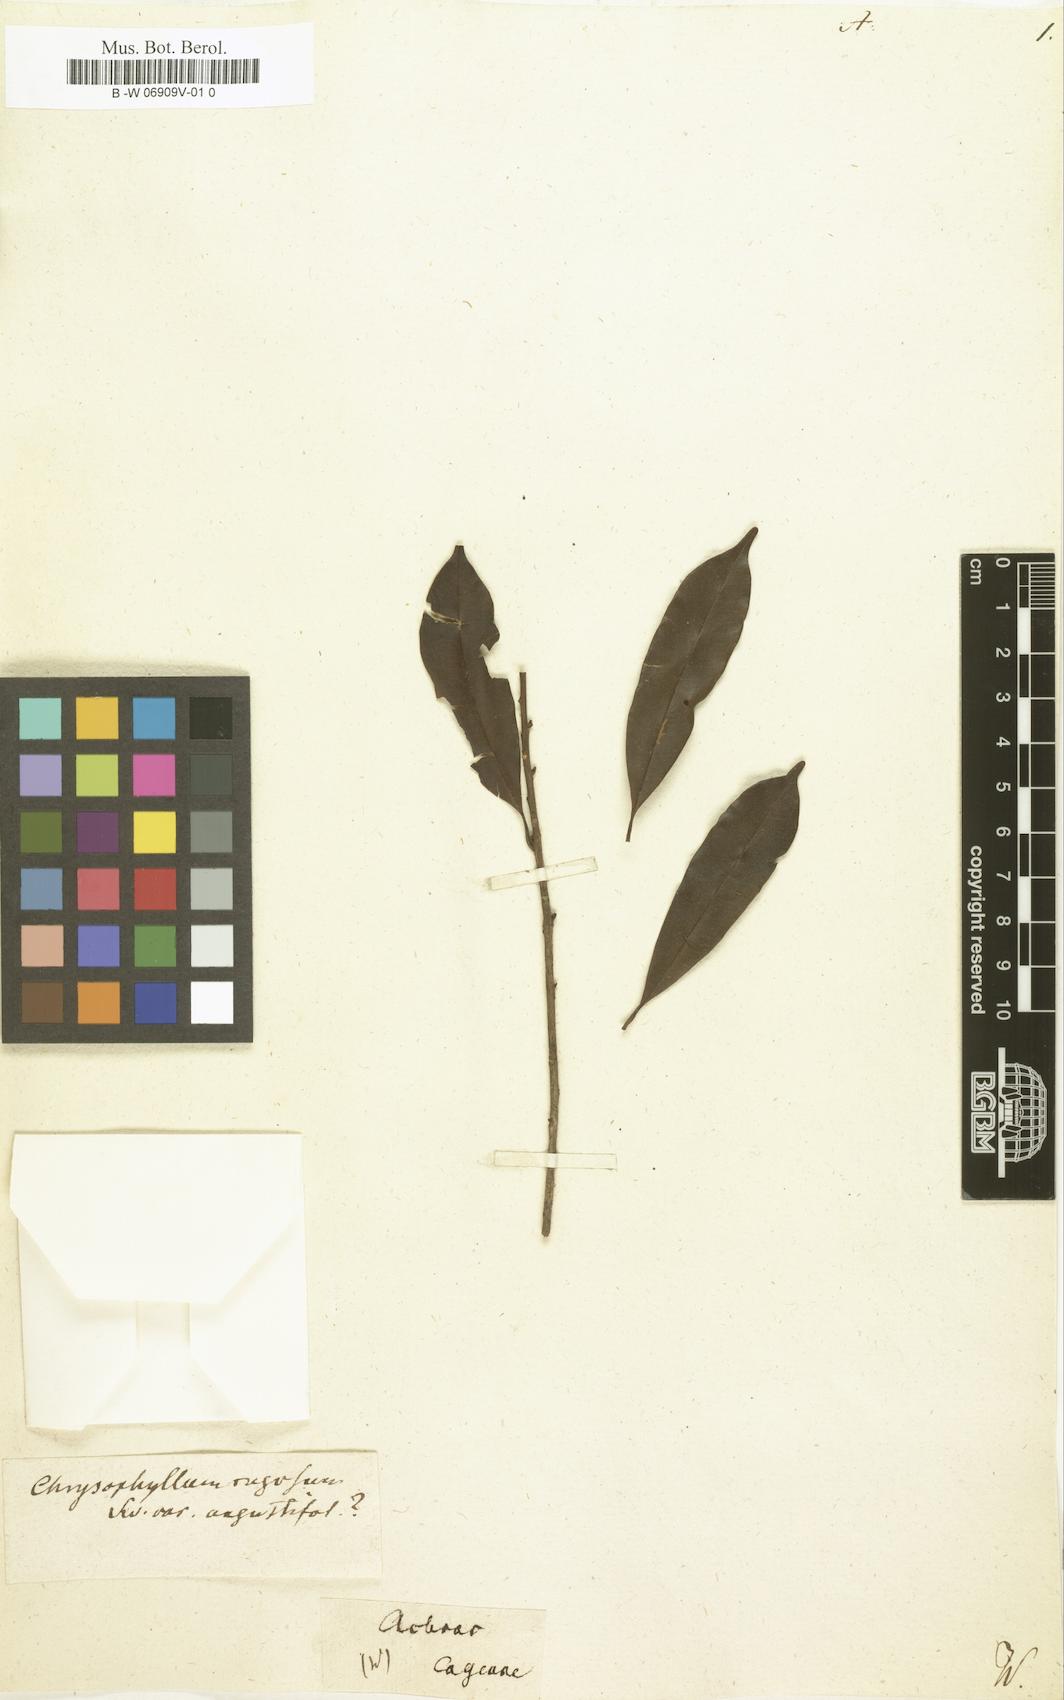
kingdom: Plantae
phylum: Tracheophyta
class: Magnoliopsida
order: Ericales
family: Sapotaceae
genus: Achras
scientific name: Achras
